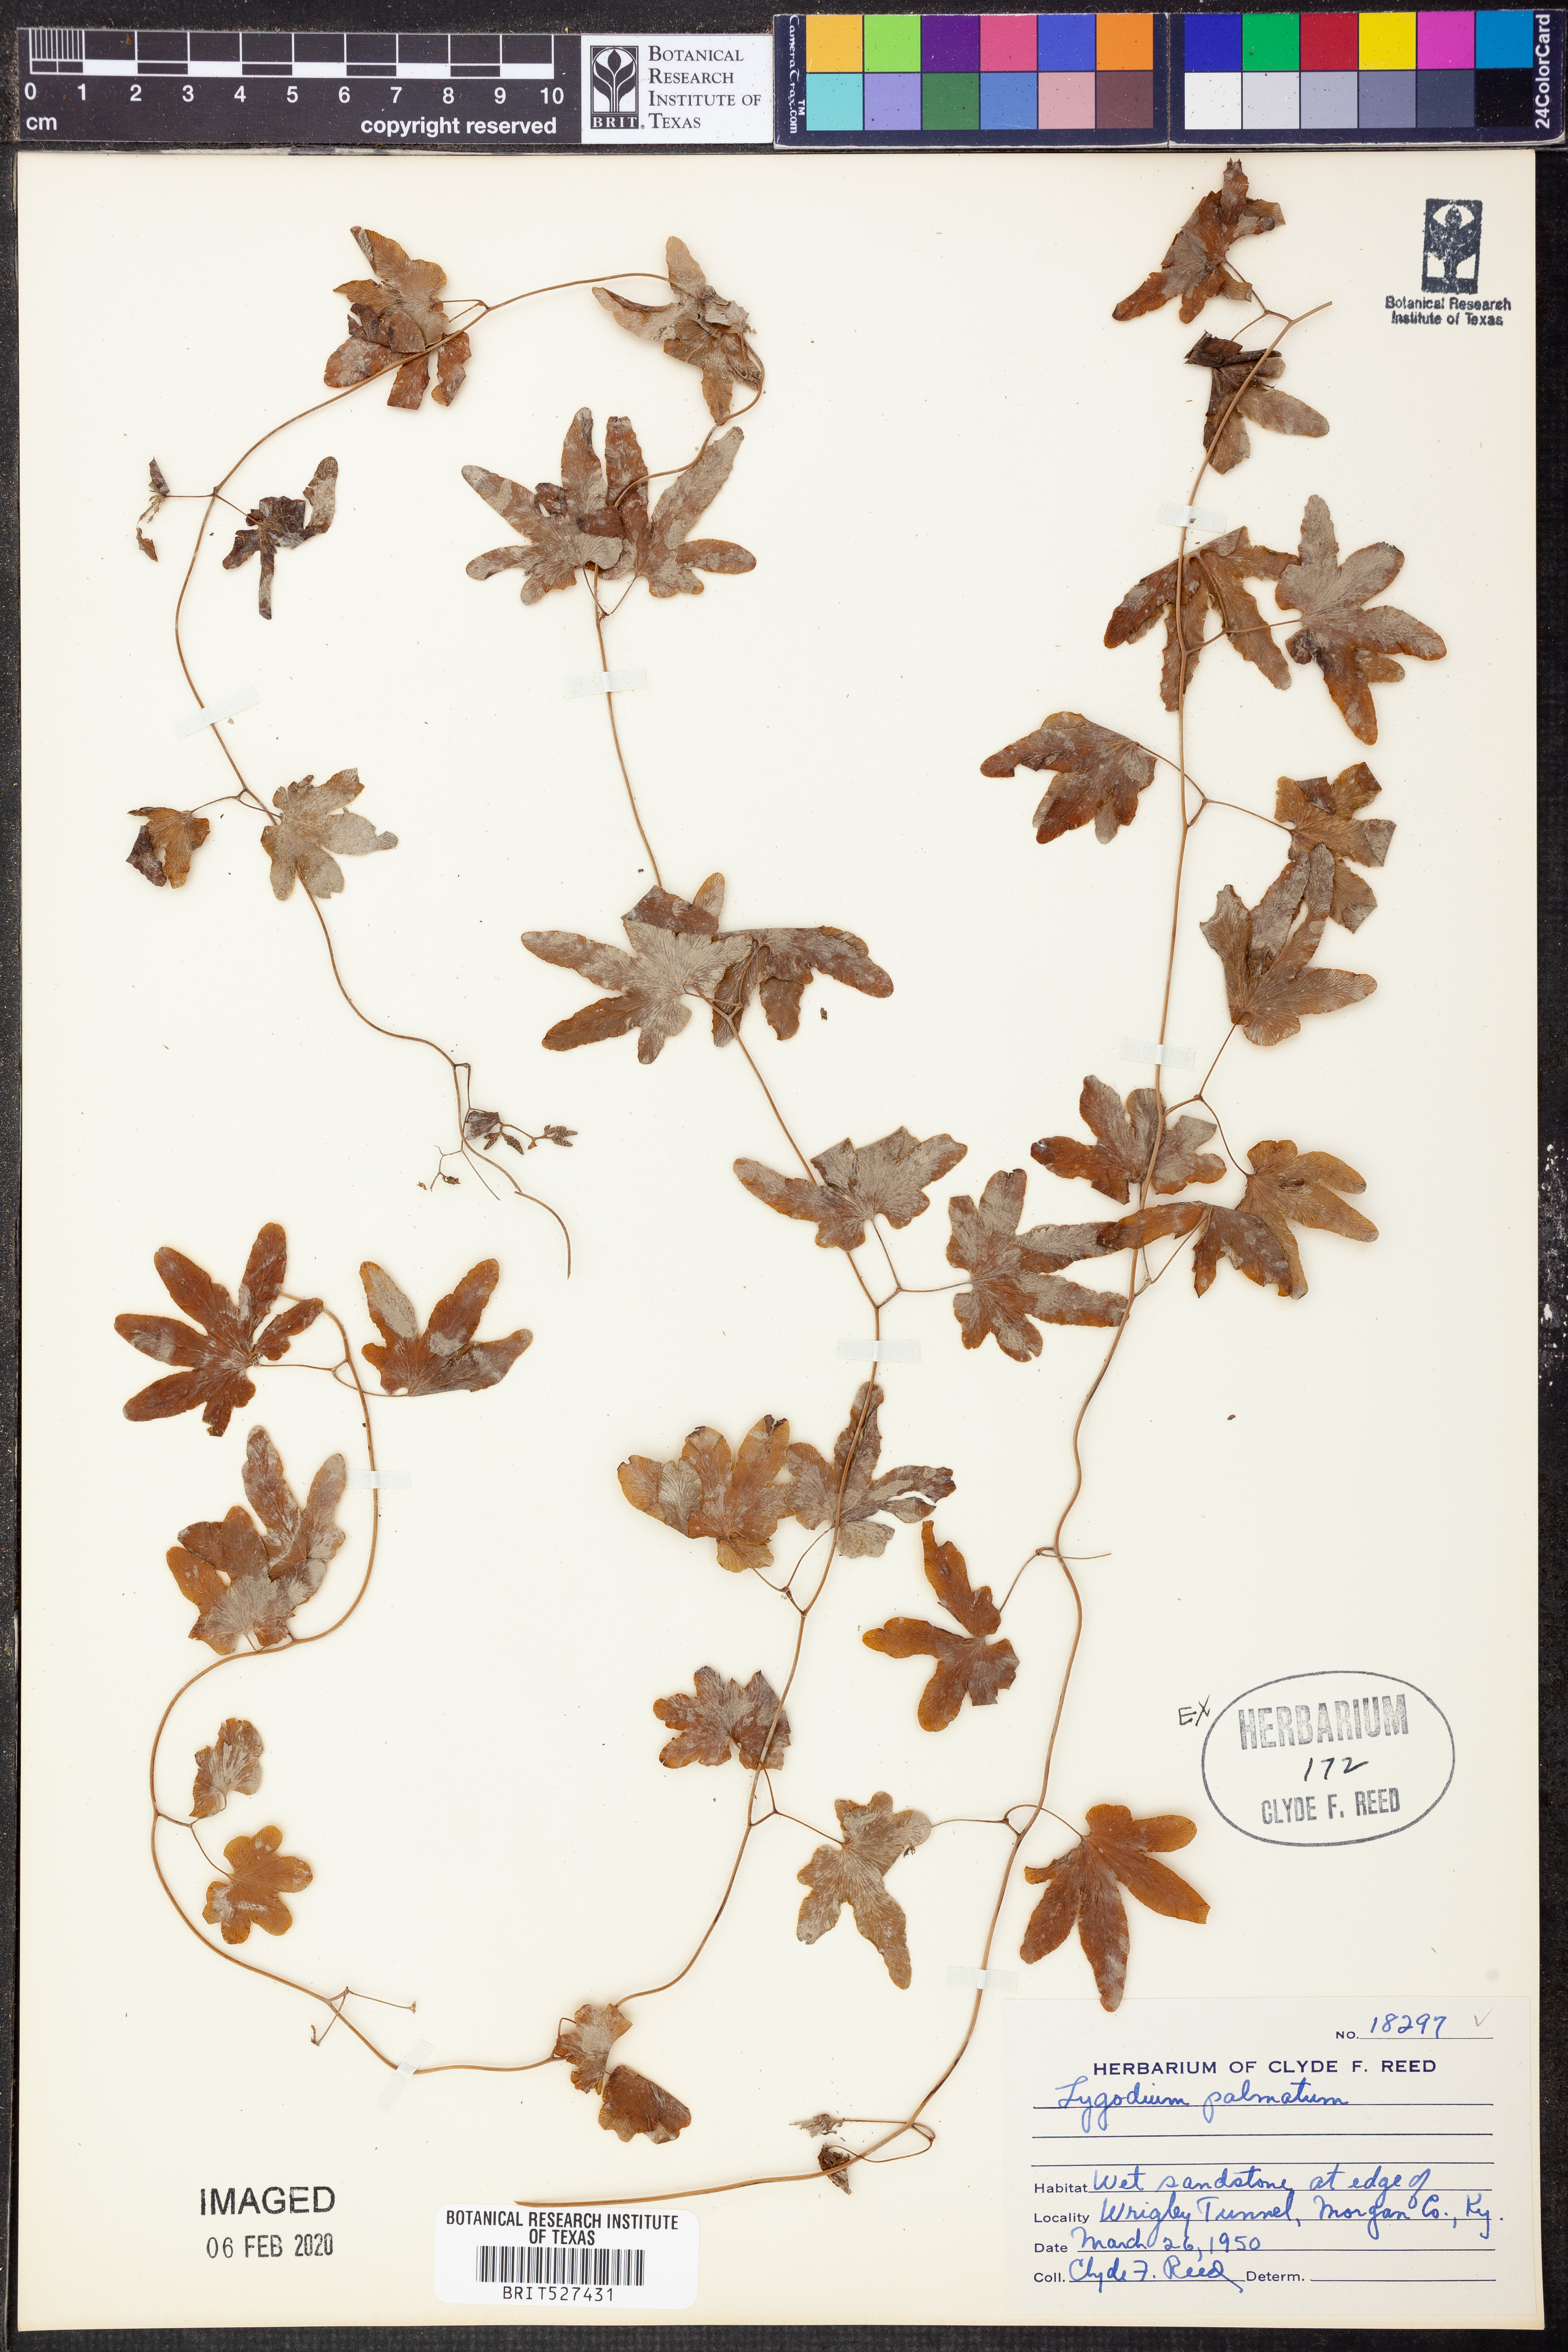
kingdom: Plantae
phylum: Tracheophyta
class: Polypodiopsida
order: Schizaeales
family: Lygodiaceae
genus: Lygodium
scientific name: Lygodium palmatum
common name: American climbing fern
